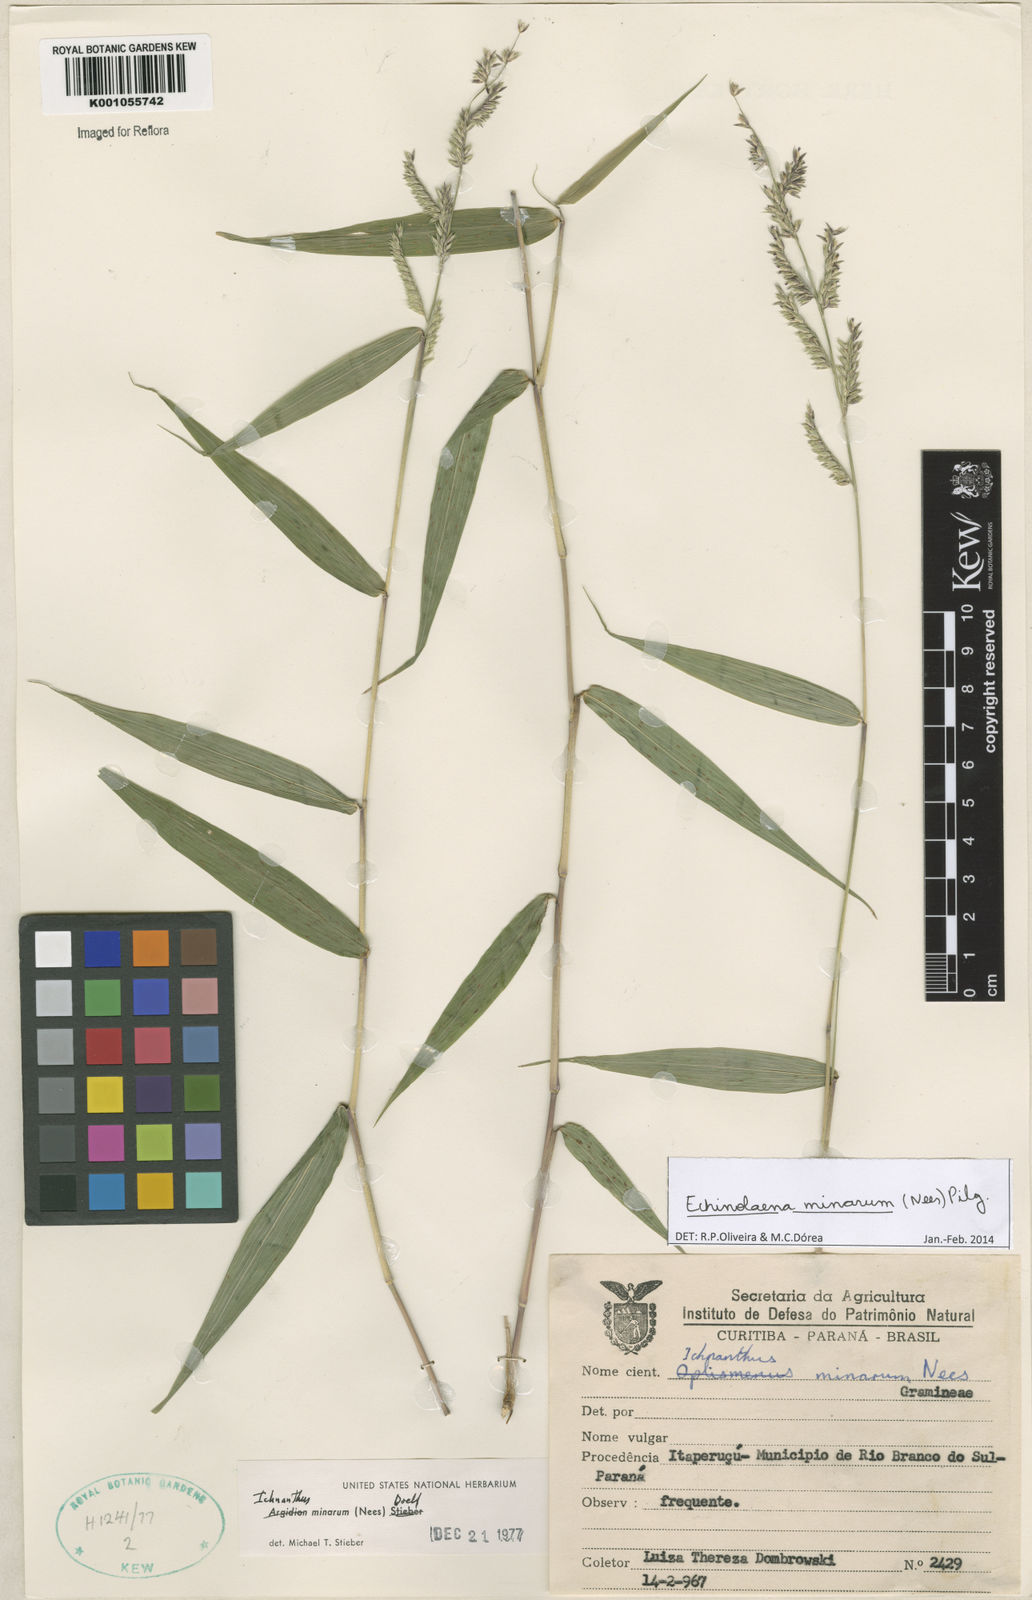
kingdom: Plantae
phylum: Tracheophyta
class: Liliopsida
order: Poales
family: Poaceae
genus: Oedochloa
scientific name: Oedochloa minarum
